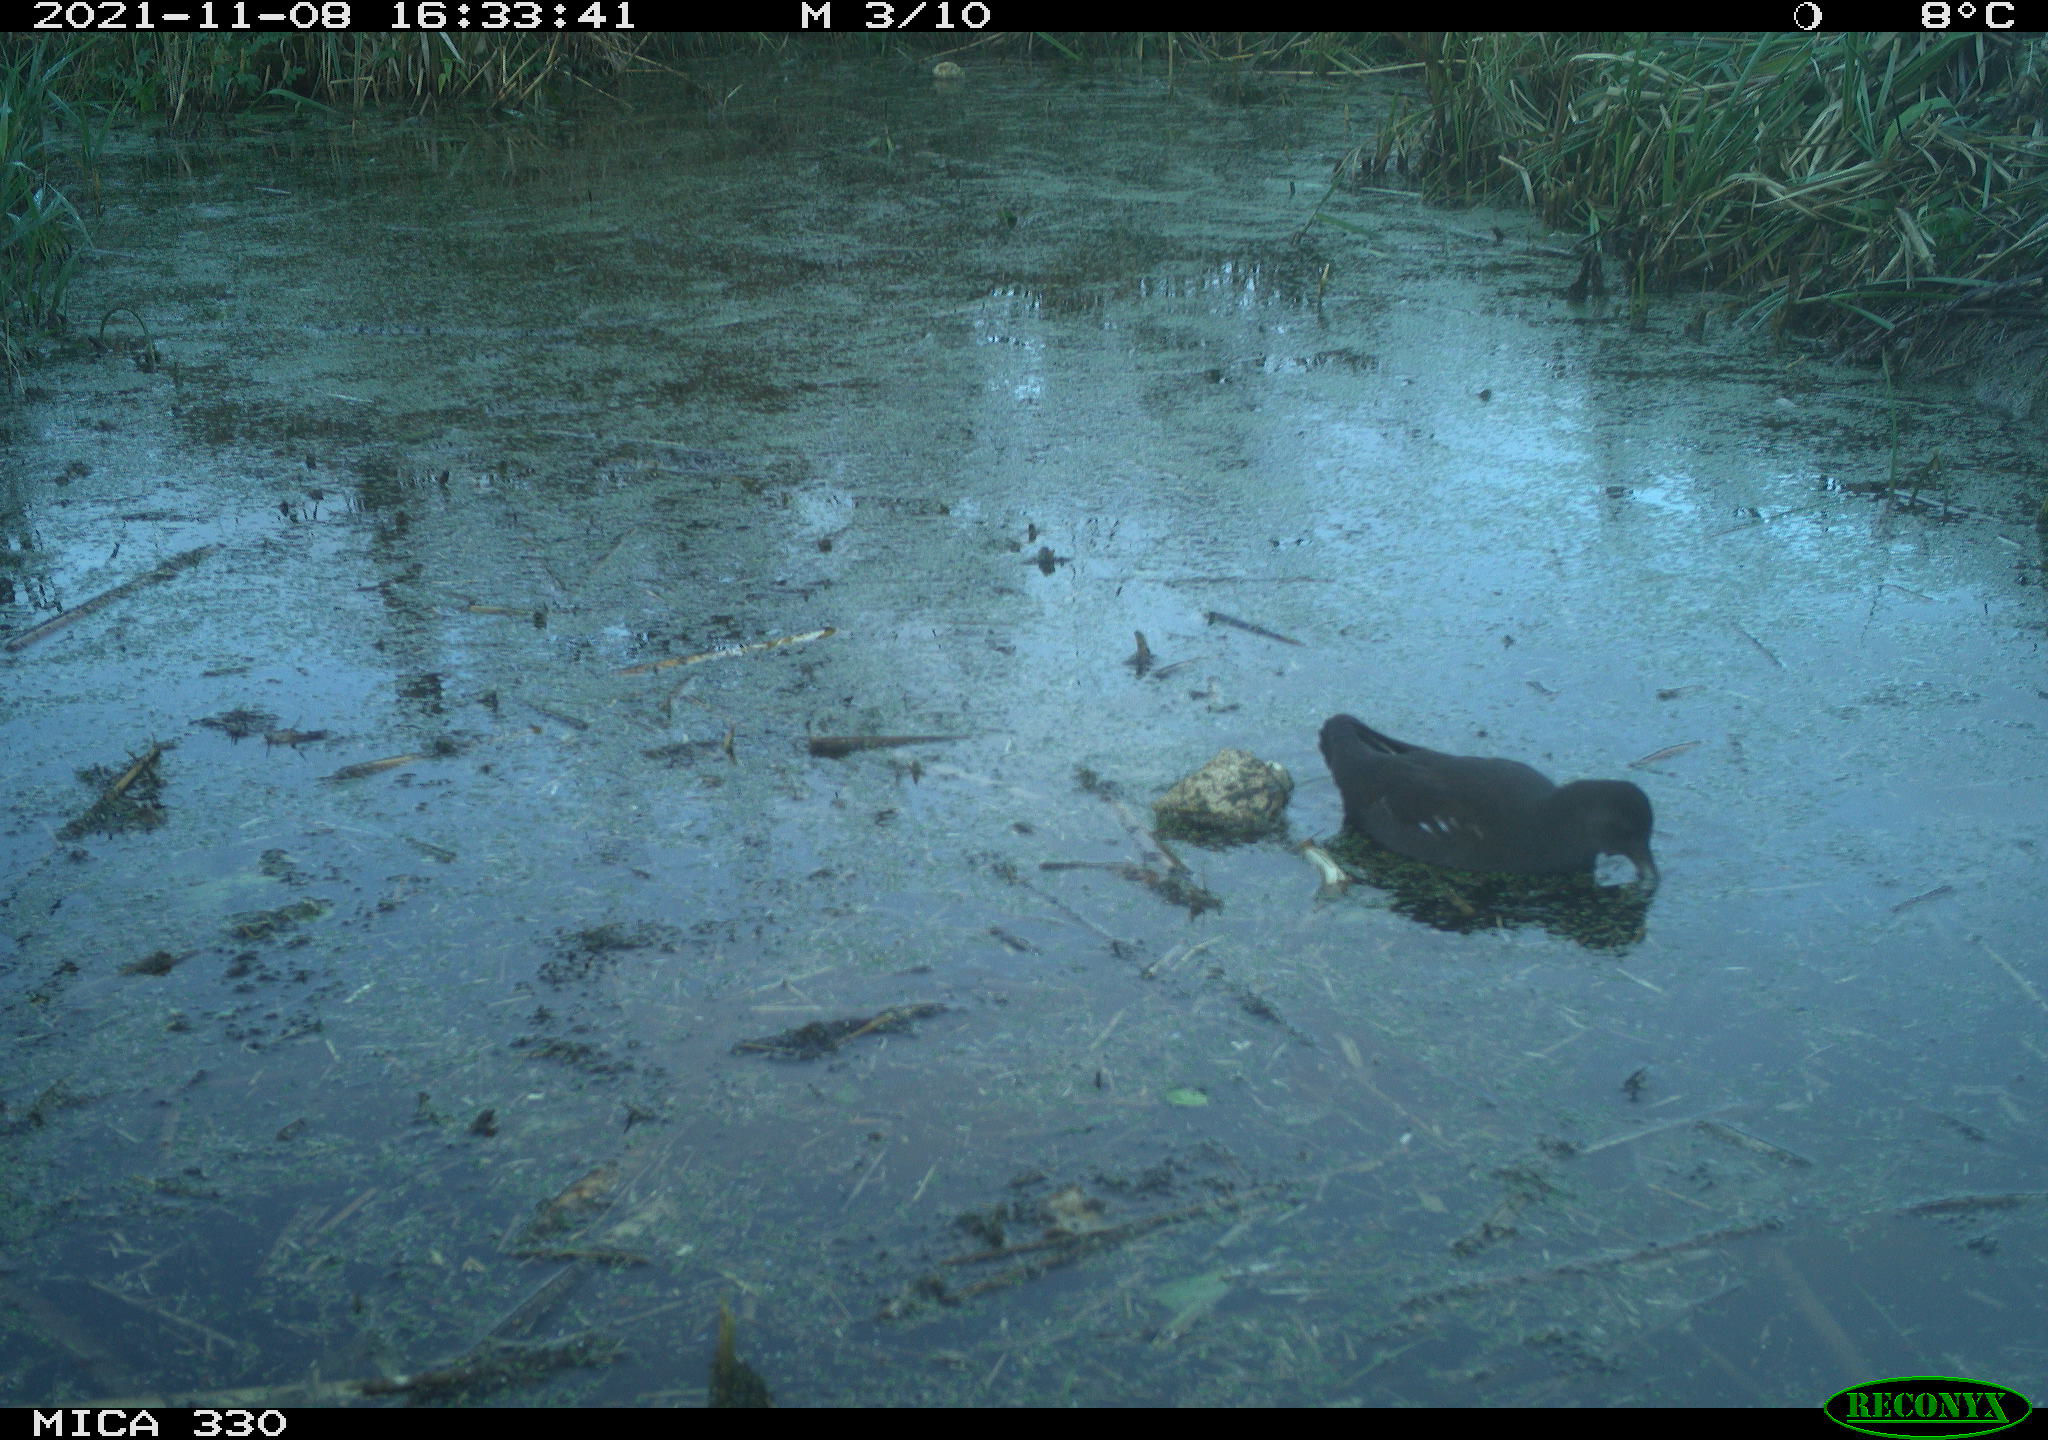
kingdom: Animalia
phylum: Chordata
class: Aves
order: Gruiformes
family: Rallidae
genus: Gallinula
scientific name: Gallinula chloropus
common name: Common moorhen
